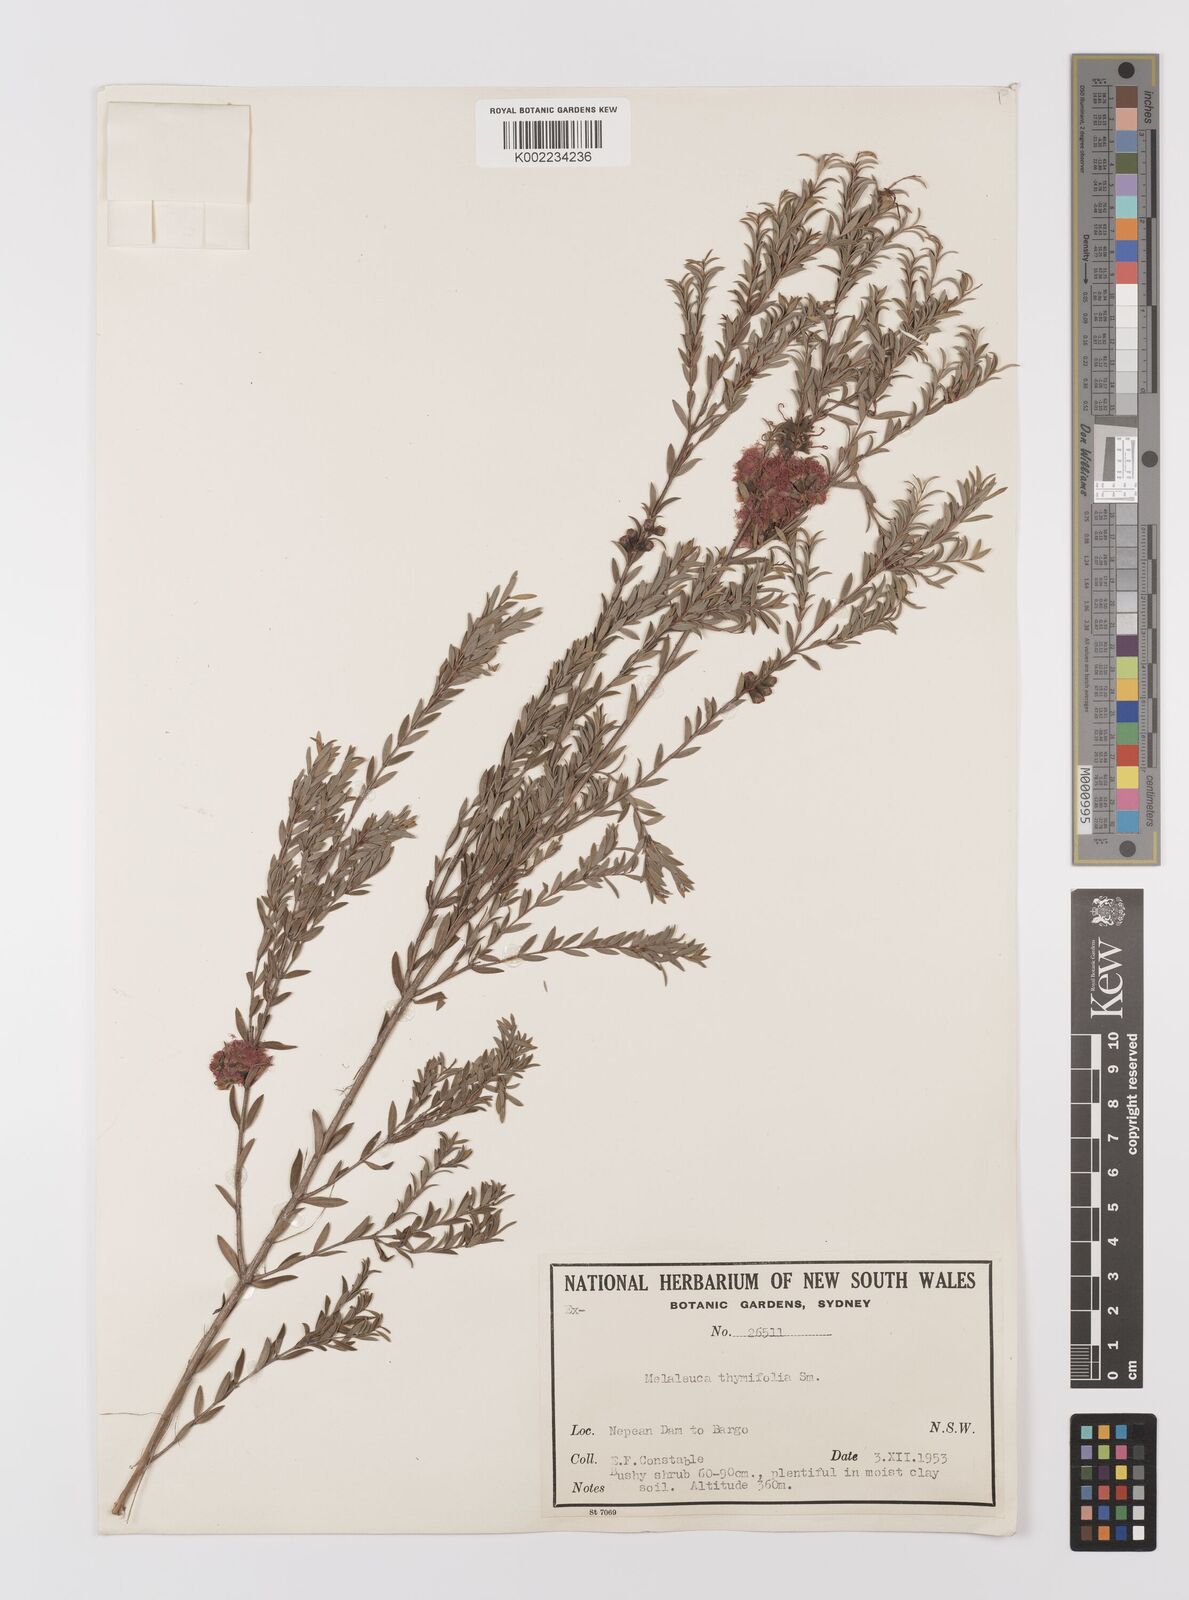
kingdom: Plantae
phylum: Tracheophyta
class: Magnoliopsida
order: Myrtales
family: Myrtaceae
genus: Melaleuca
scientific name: Melaleuca thymifolia
